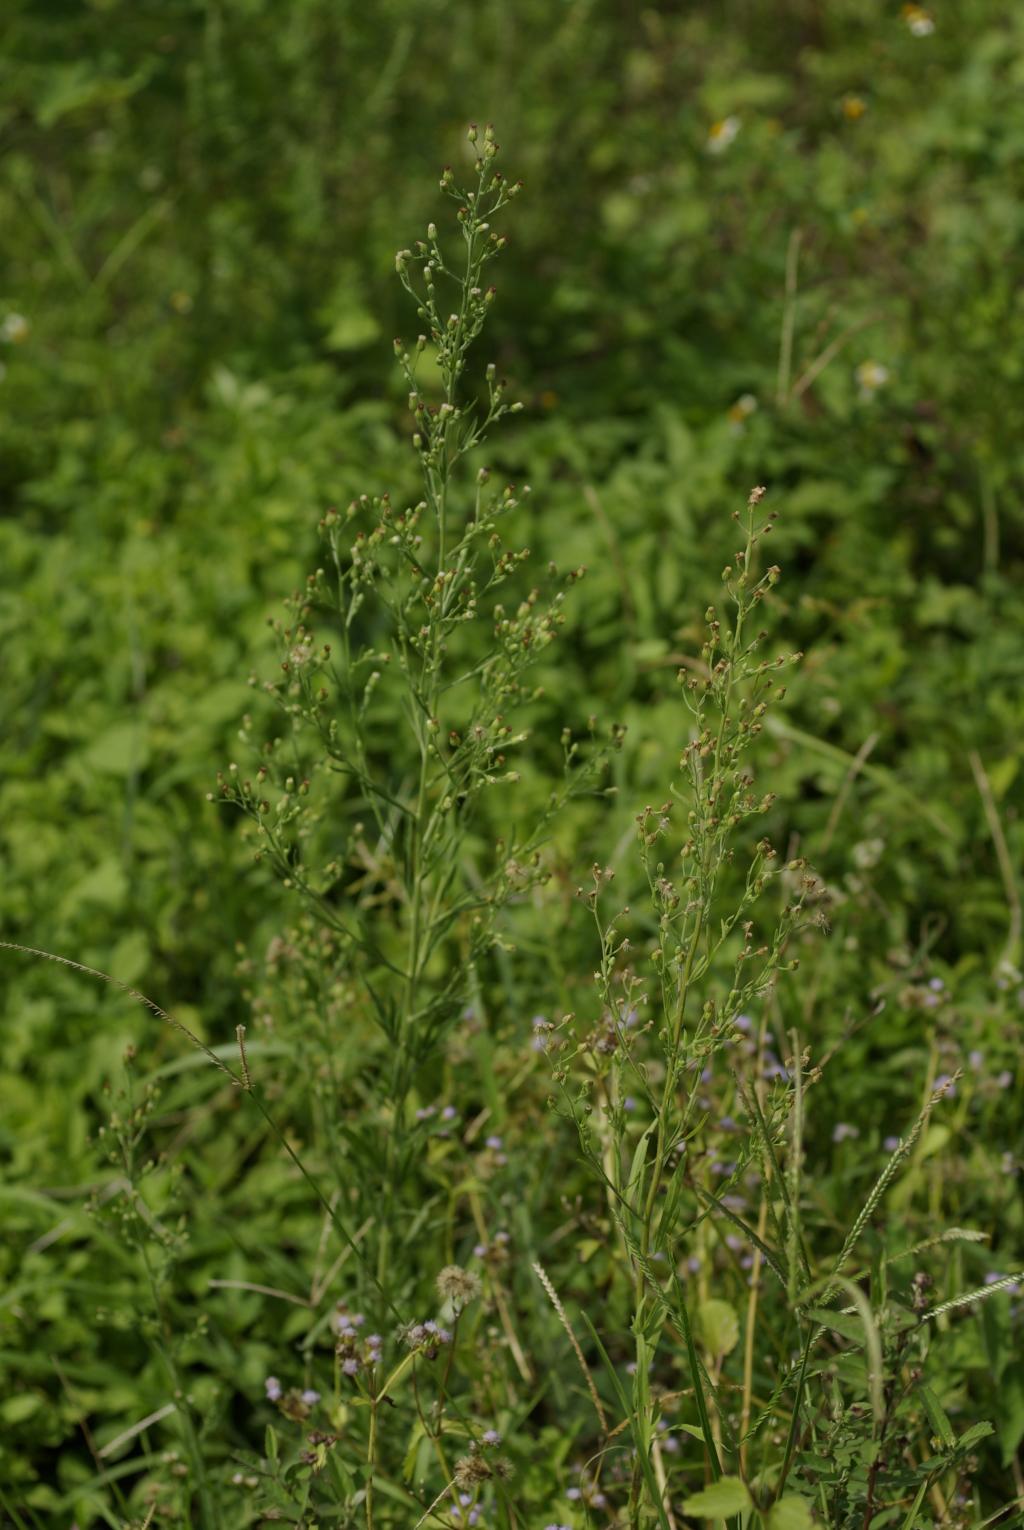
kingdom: Plantae
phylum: Tracheophyta
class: Magnoliopsida
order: Asterales
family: Asteraceae
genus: Erigeron
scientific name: Erigeron sumatrensis
